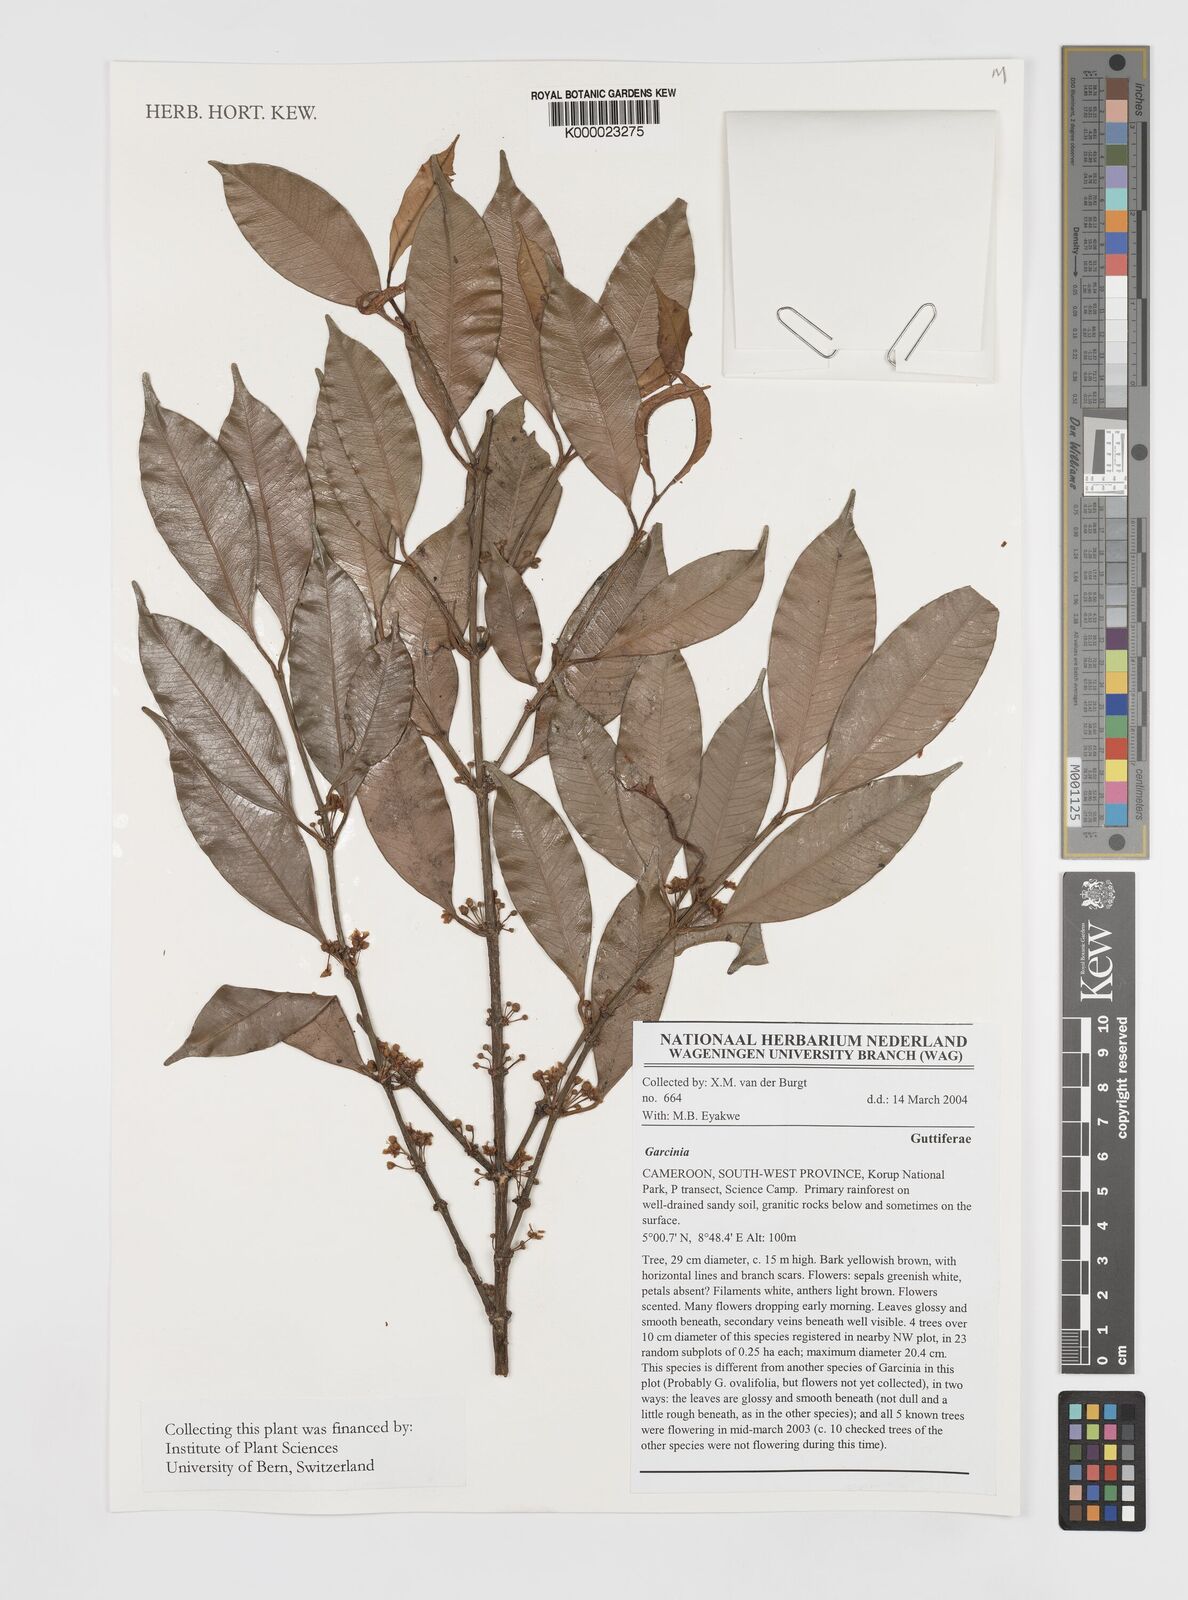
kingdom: Plantae
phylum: Tracheophyta
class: Magnoliopsida
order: Malpighiales
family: Clusiaceae
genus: Garcinia
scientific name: Garcinia
